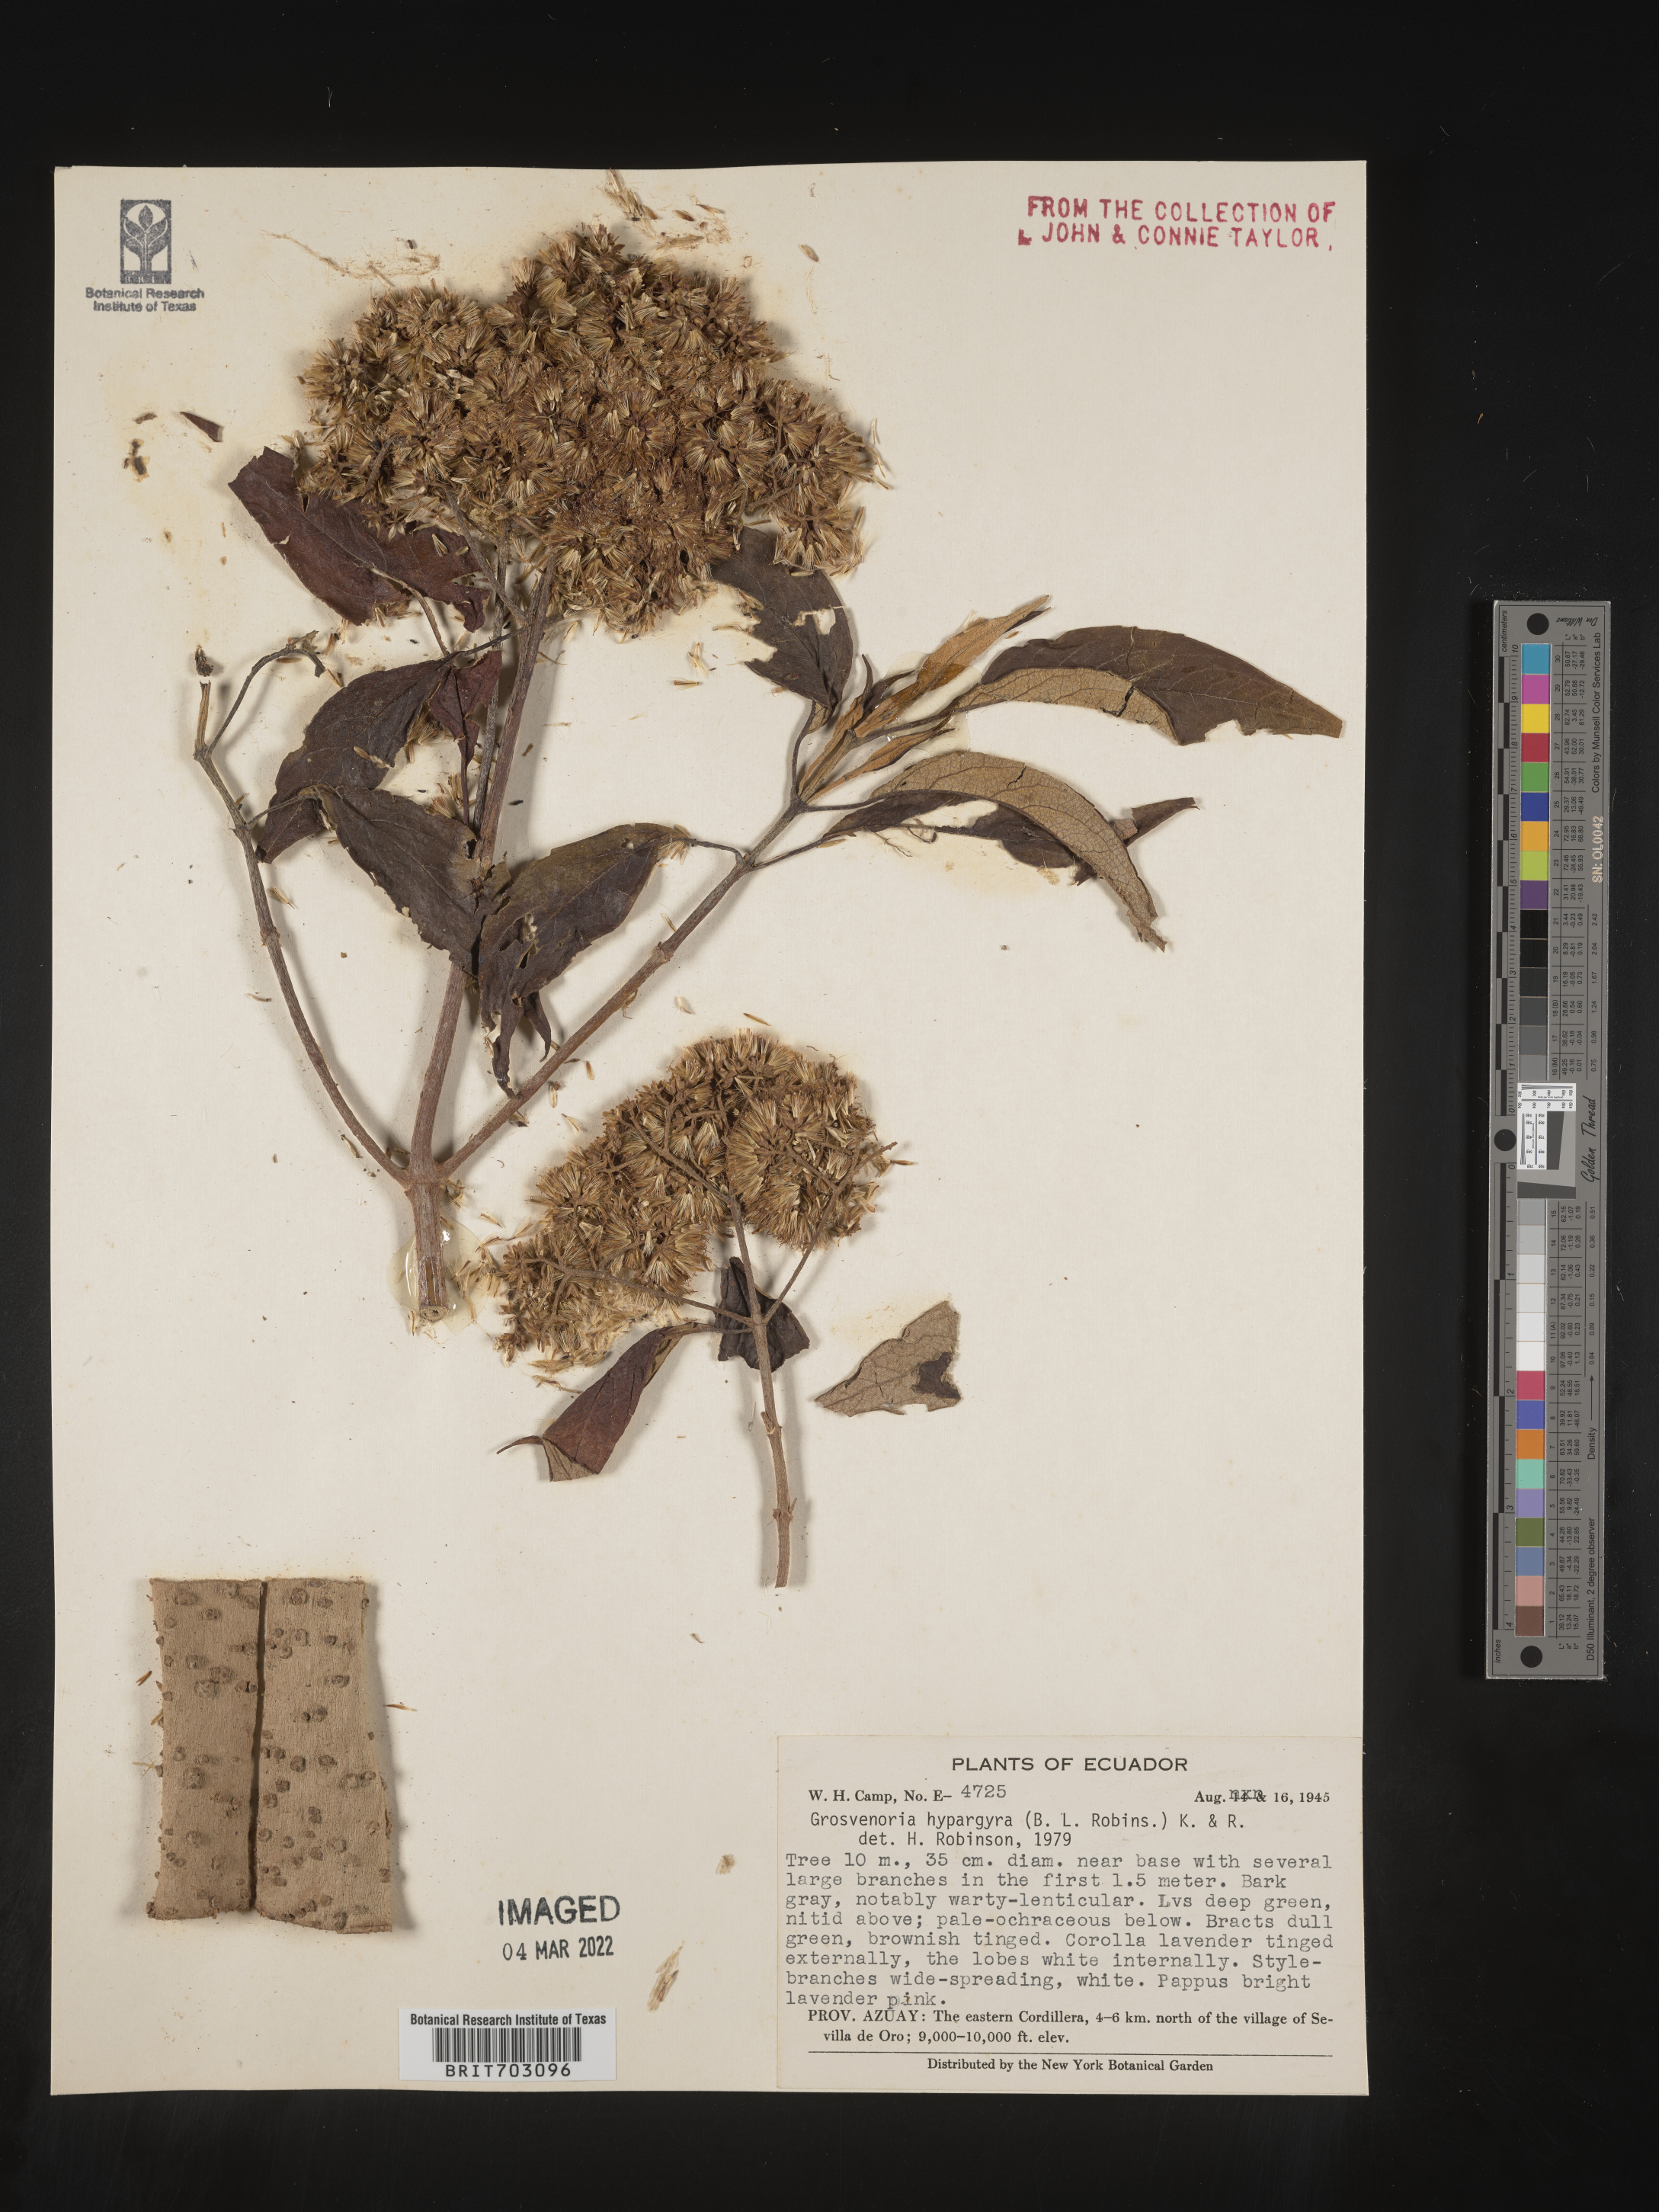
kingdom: Plantae
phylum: Tracheophyta
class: Magnoliopsida
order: Asterales
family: Asteraceae
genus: Eupatorium
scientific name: Eupatorium
